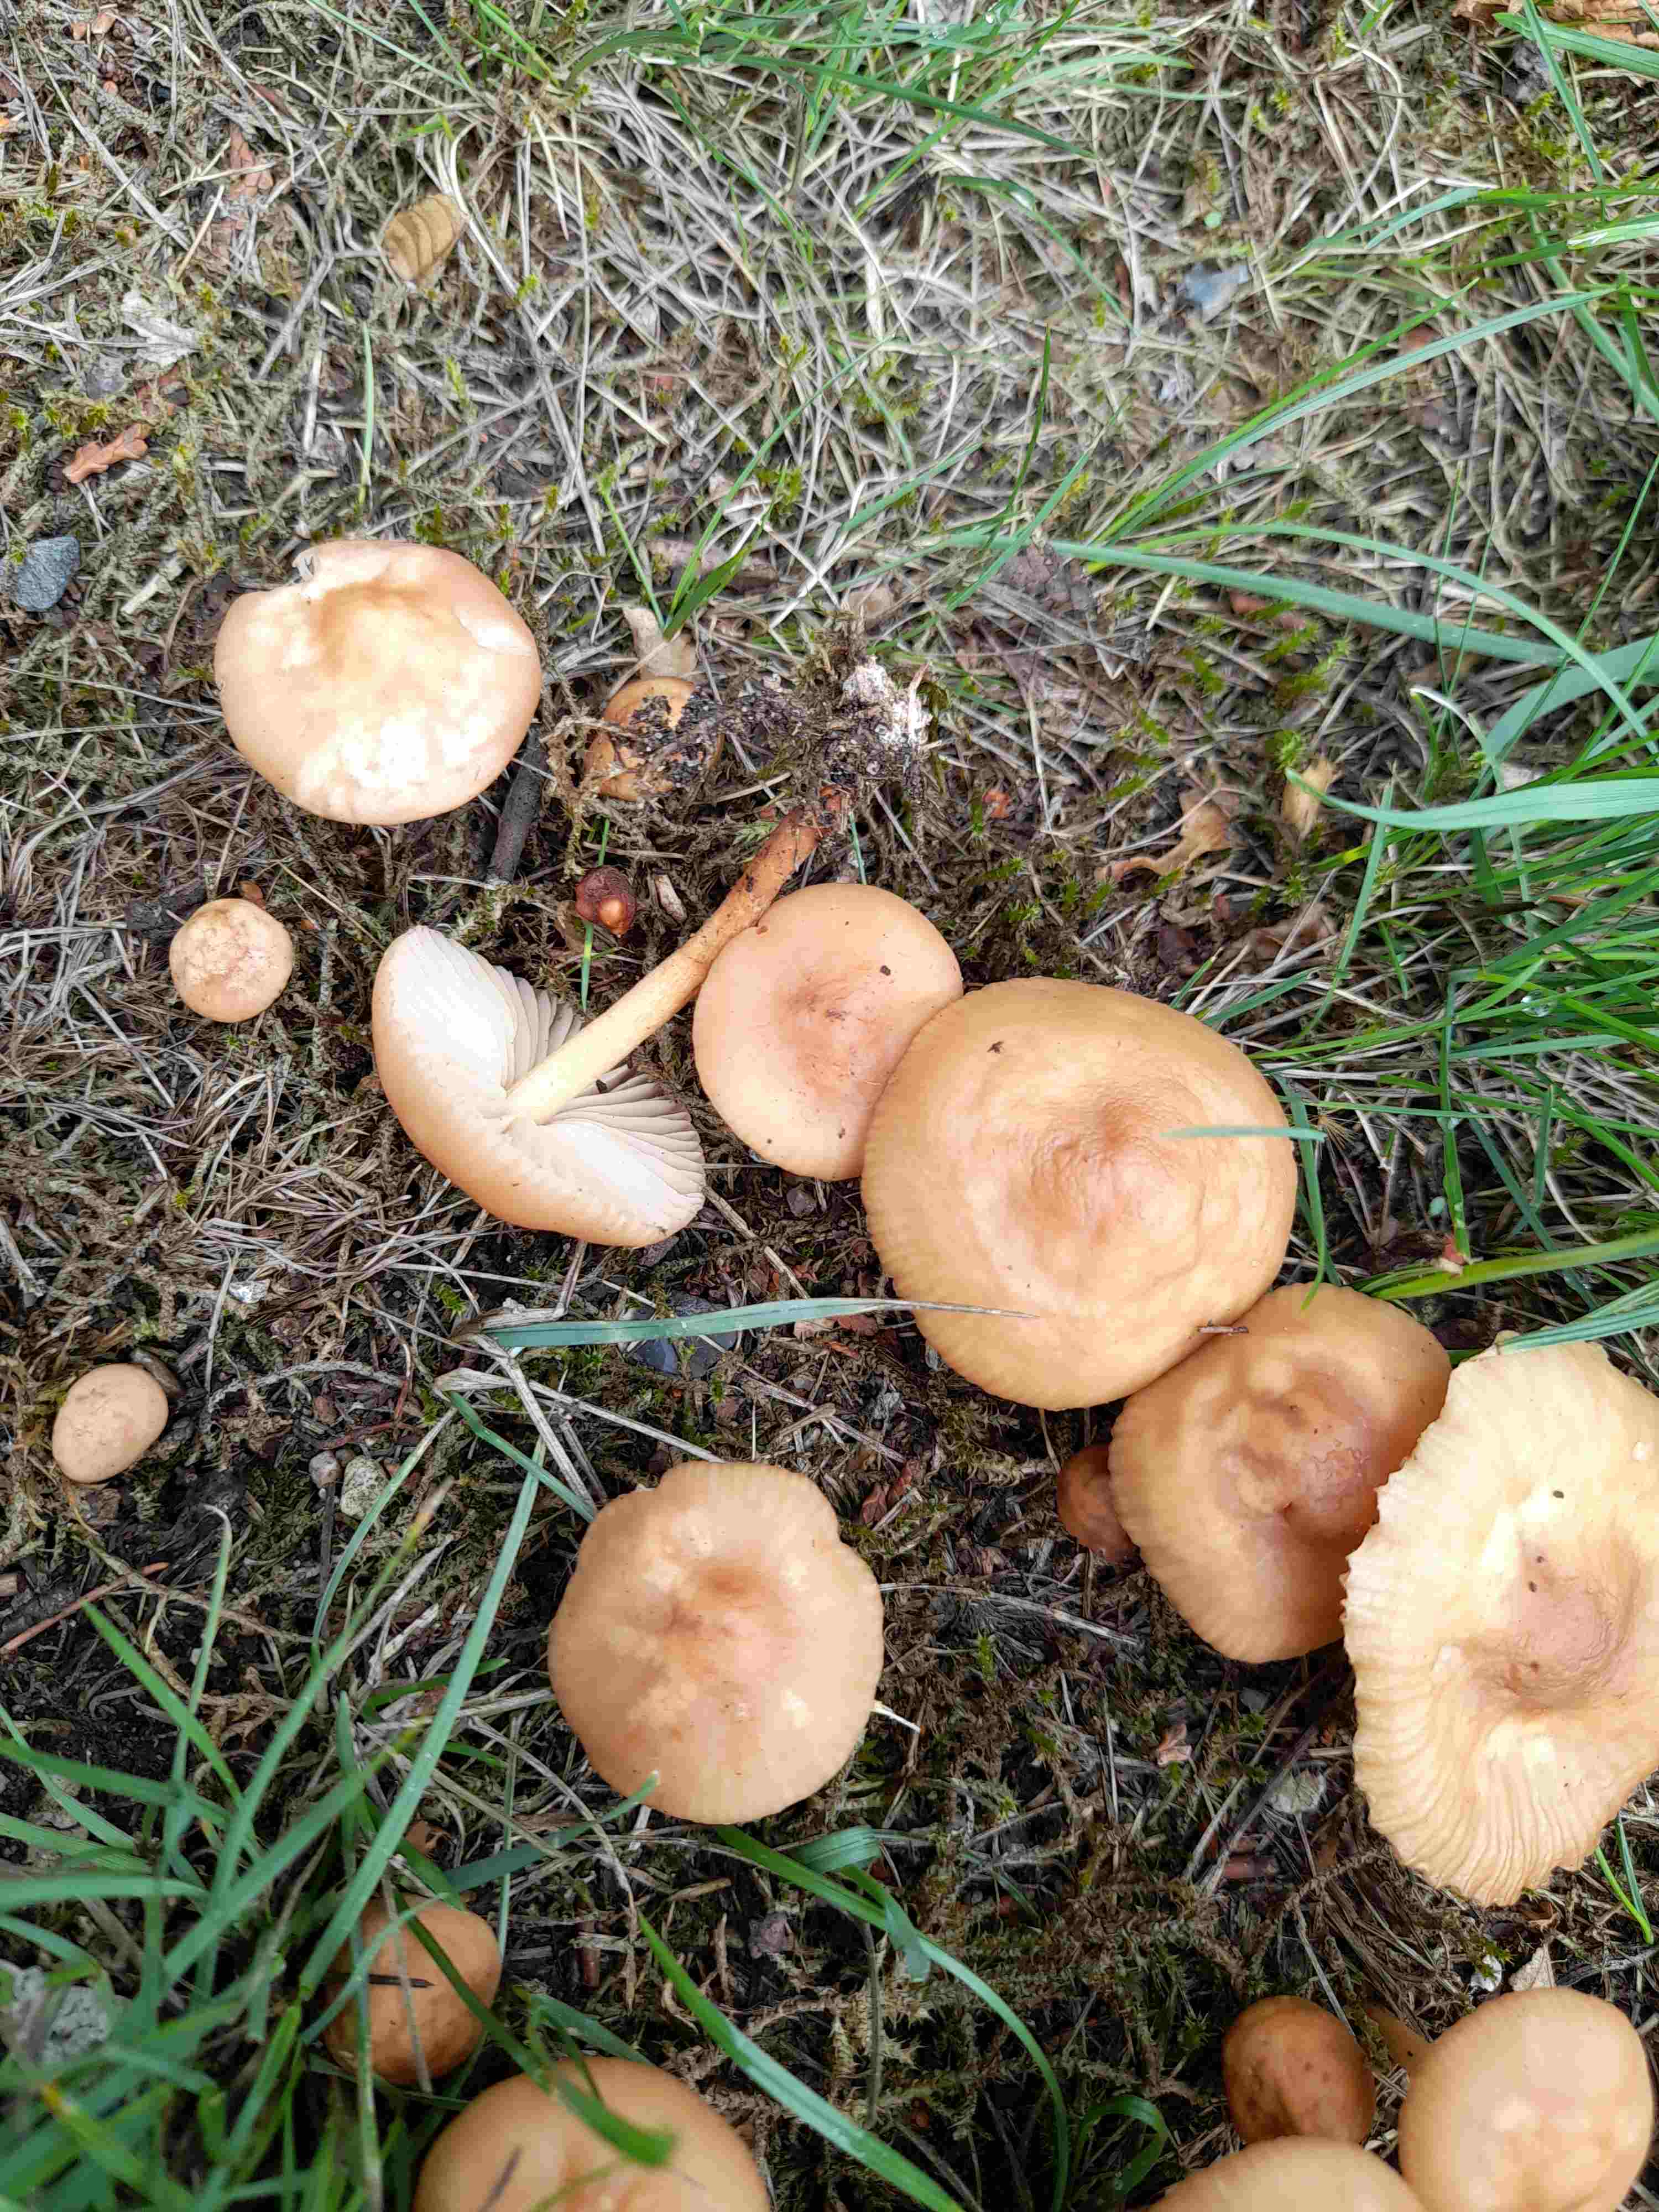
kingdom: Fungi
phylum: Basidiomycota
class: Agaricomycetes
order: Agaricales
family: Marasmiaceae
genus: Marasmius
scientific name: Marasmius oreades
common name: elledans-bruskhat
